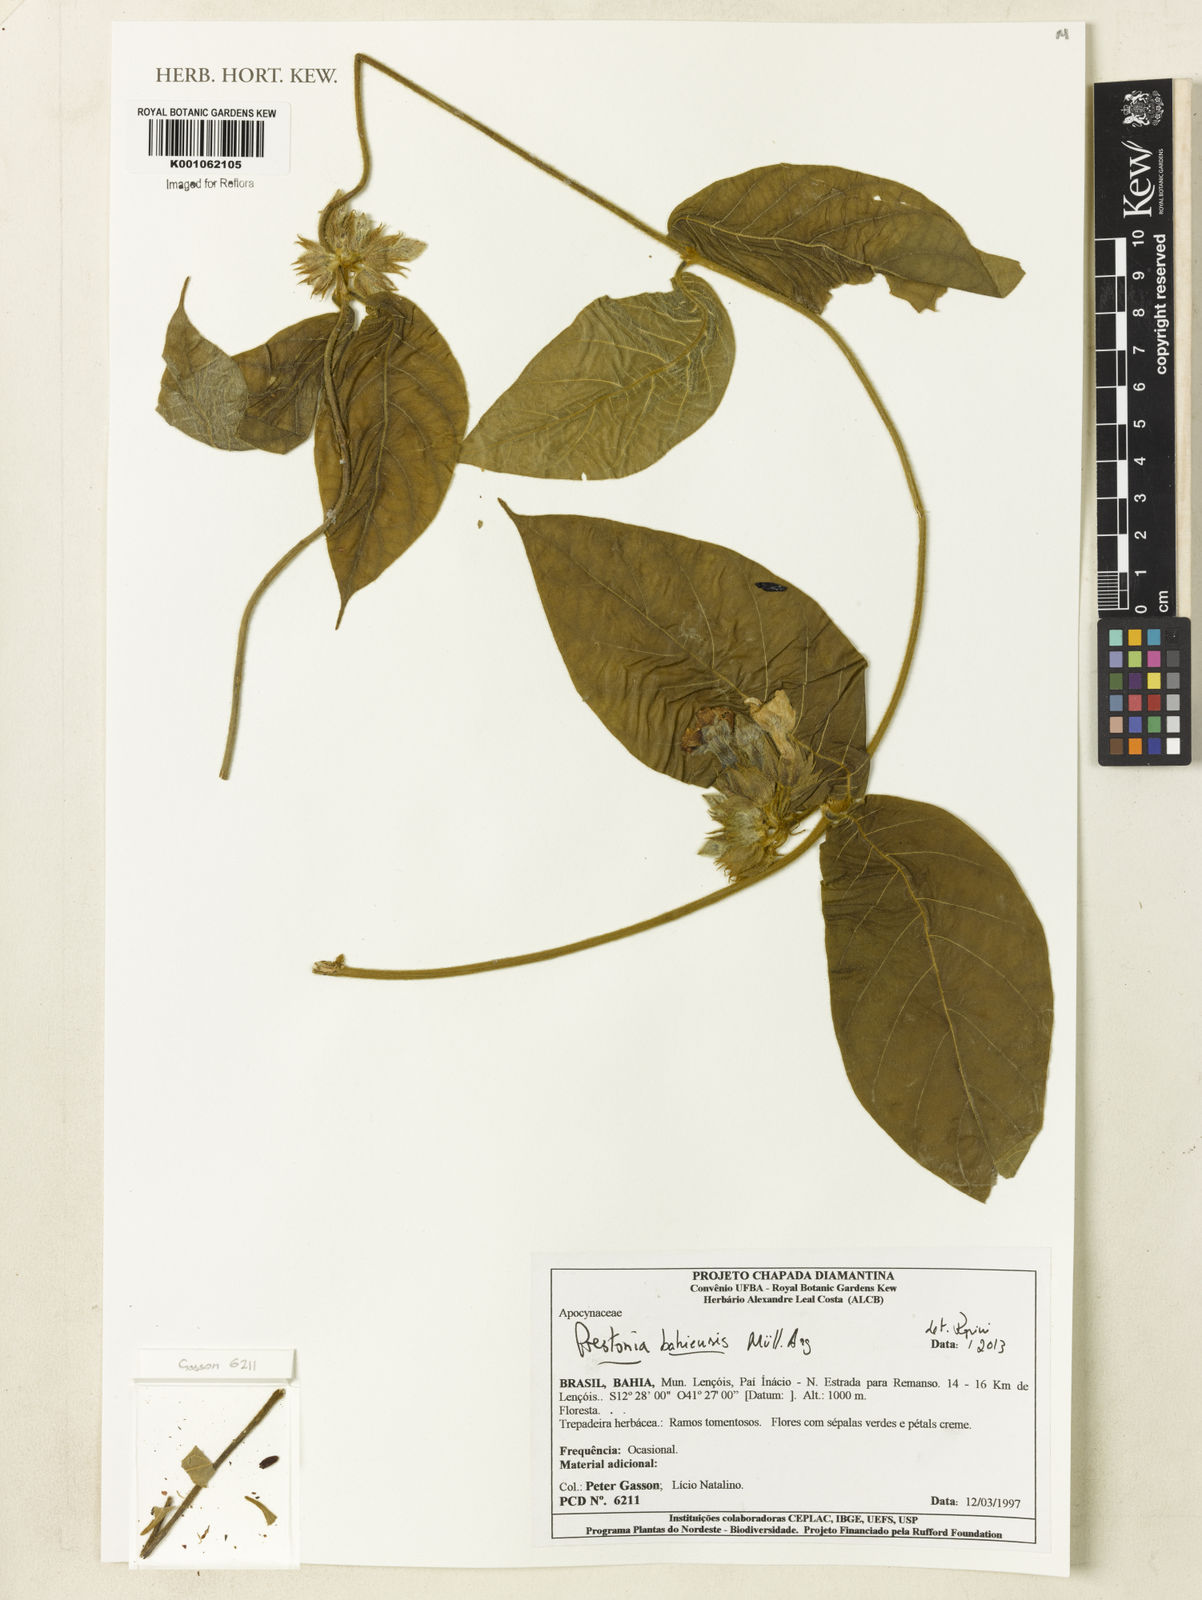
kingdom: Plantae
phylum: Tracheophyta
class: Magnoliopsida
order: Gentianales
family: Apocynaceae
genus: Prestonia
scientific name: Prestonia
